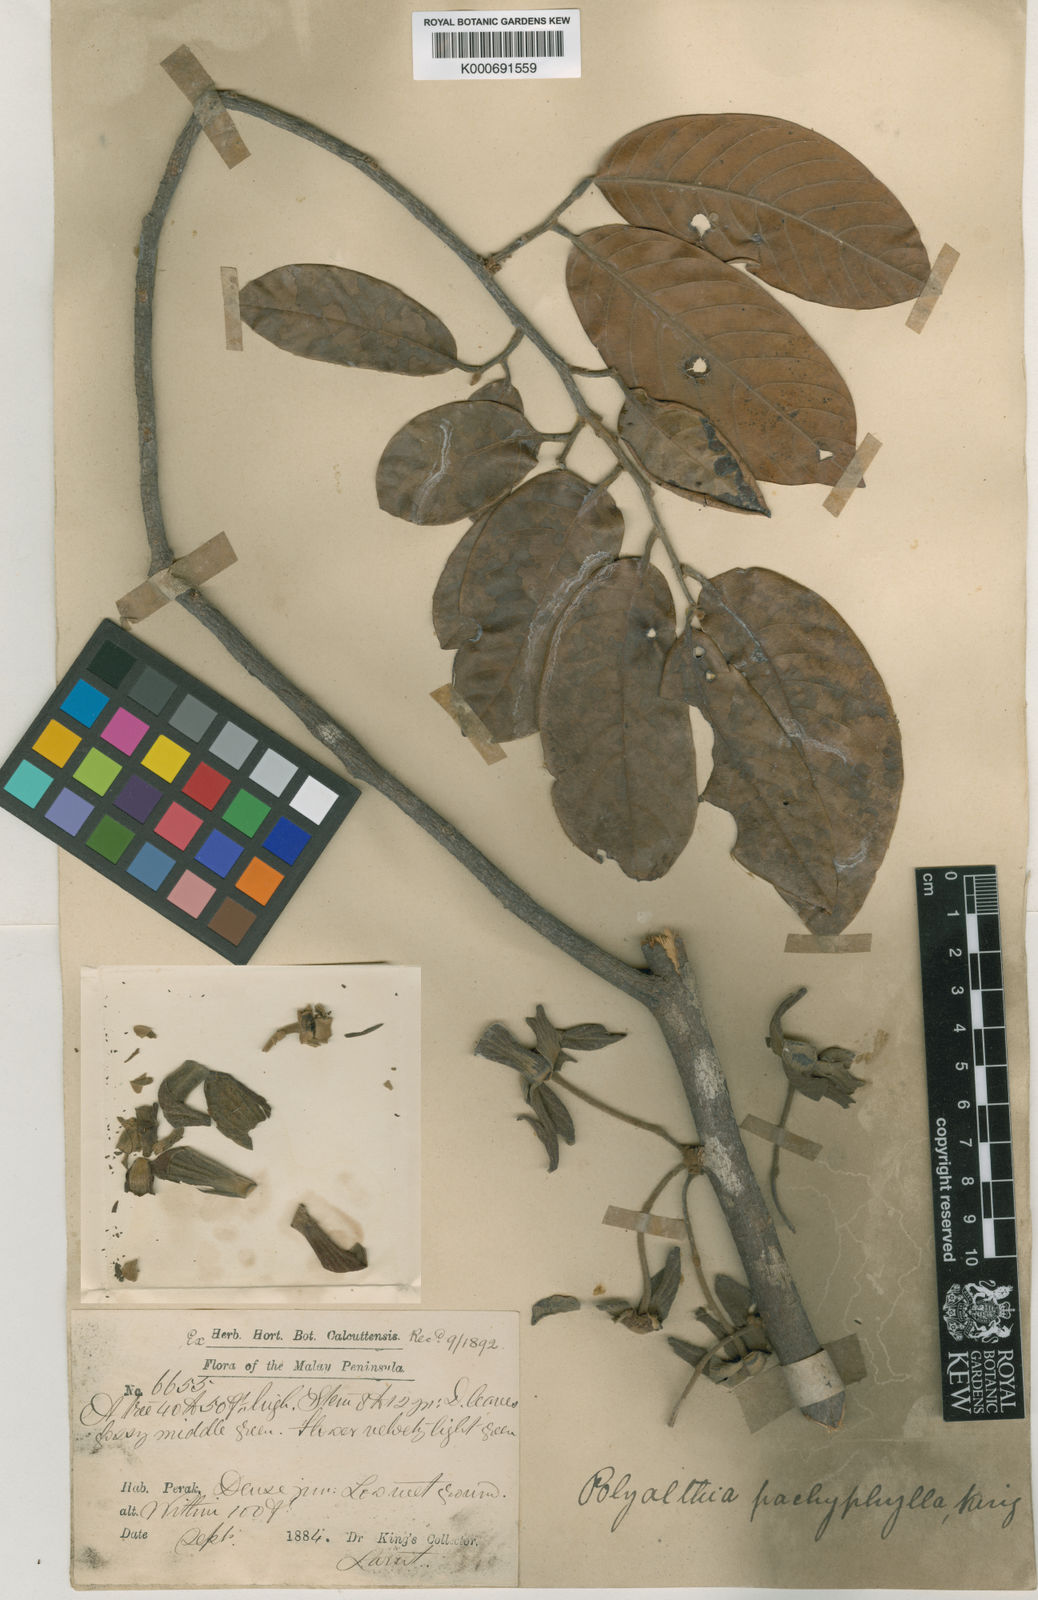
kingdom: Plantae
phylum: Tracheophyta
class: Magnoliopsida
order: Magnoliales
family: Annonaceae
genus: Polyalthia
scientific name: Polyalthia pachyphylla
